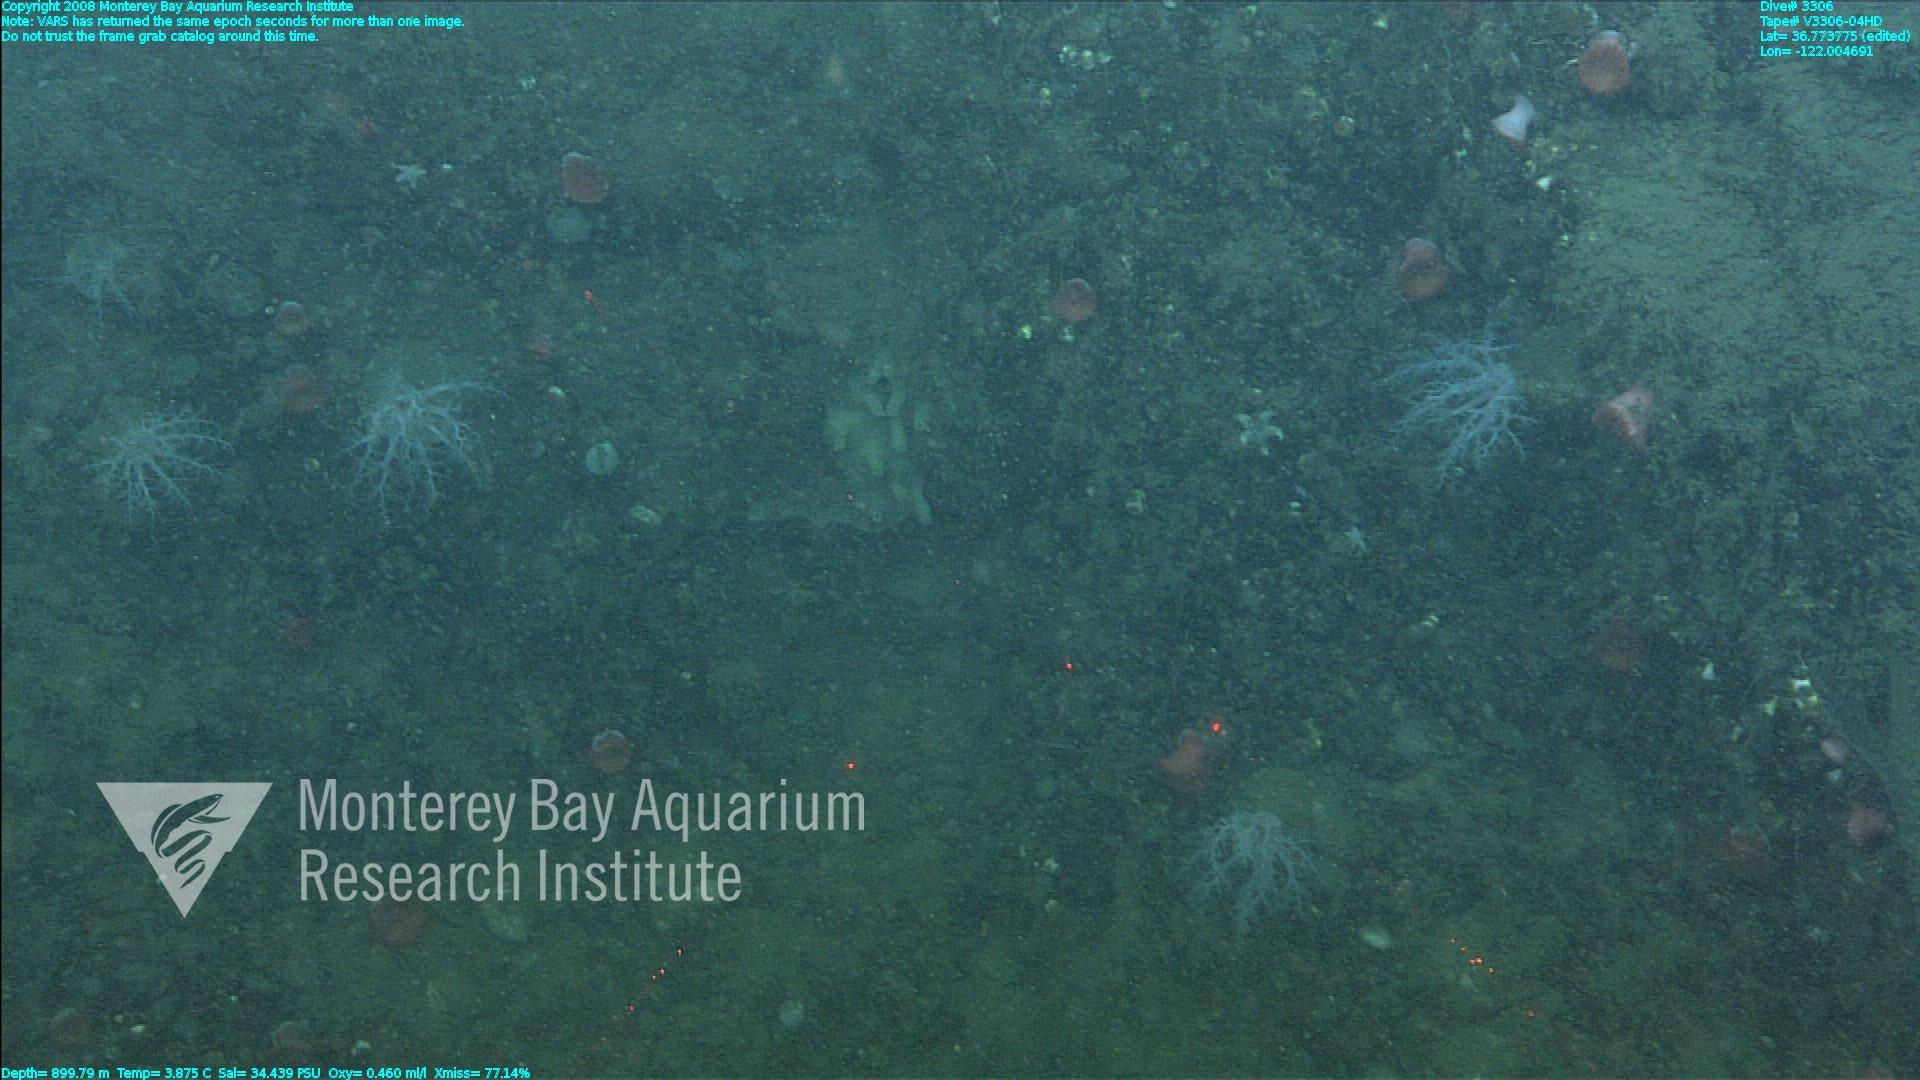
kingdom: Animalia
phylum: Porifera
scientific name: Porifera
